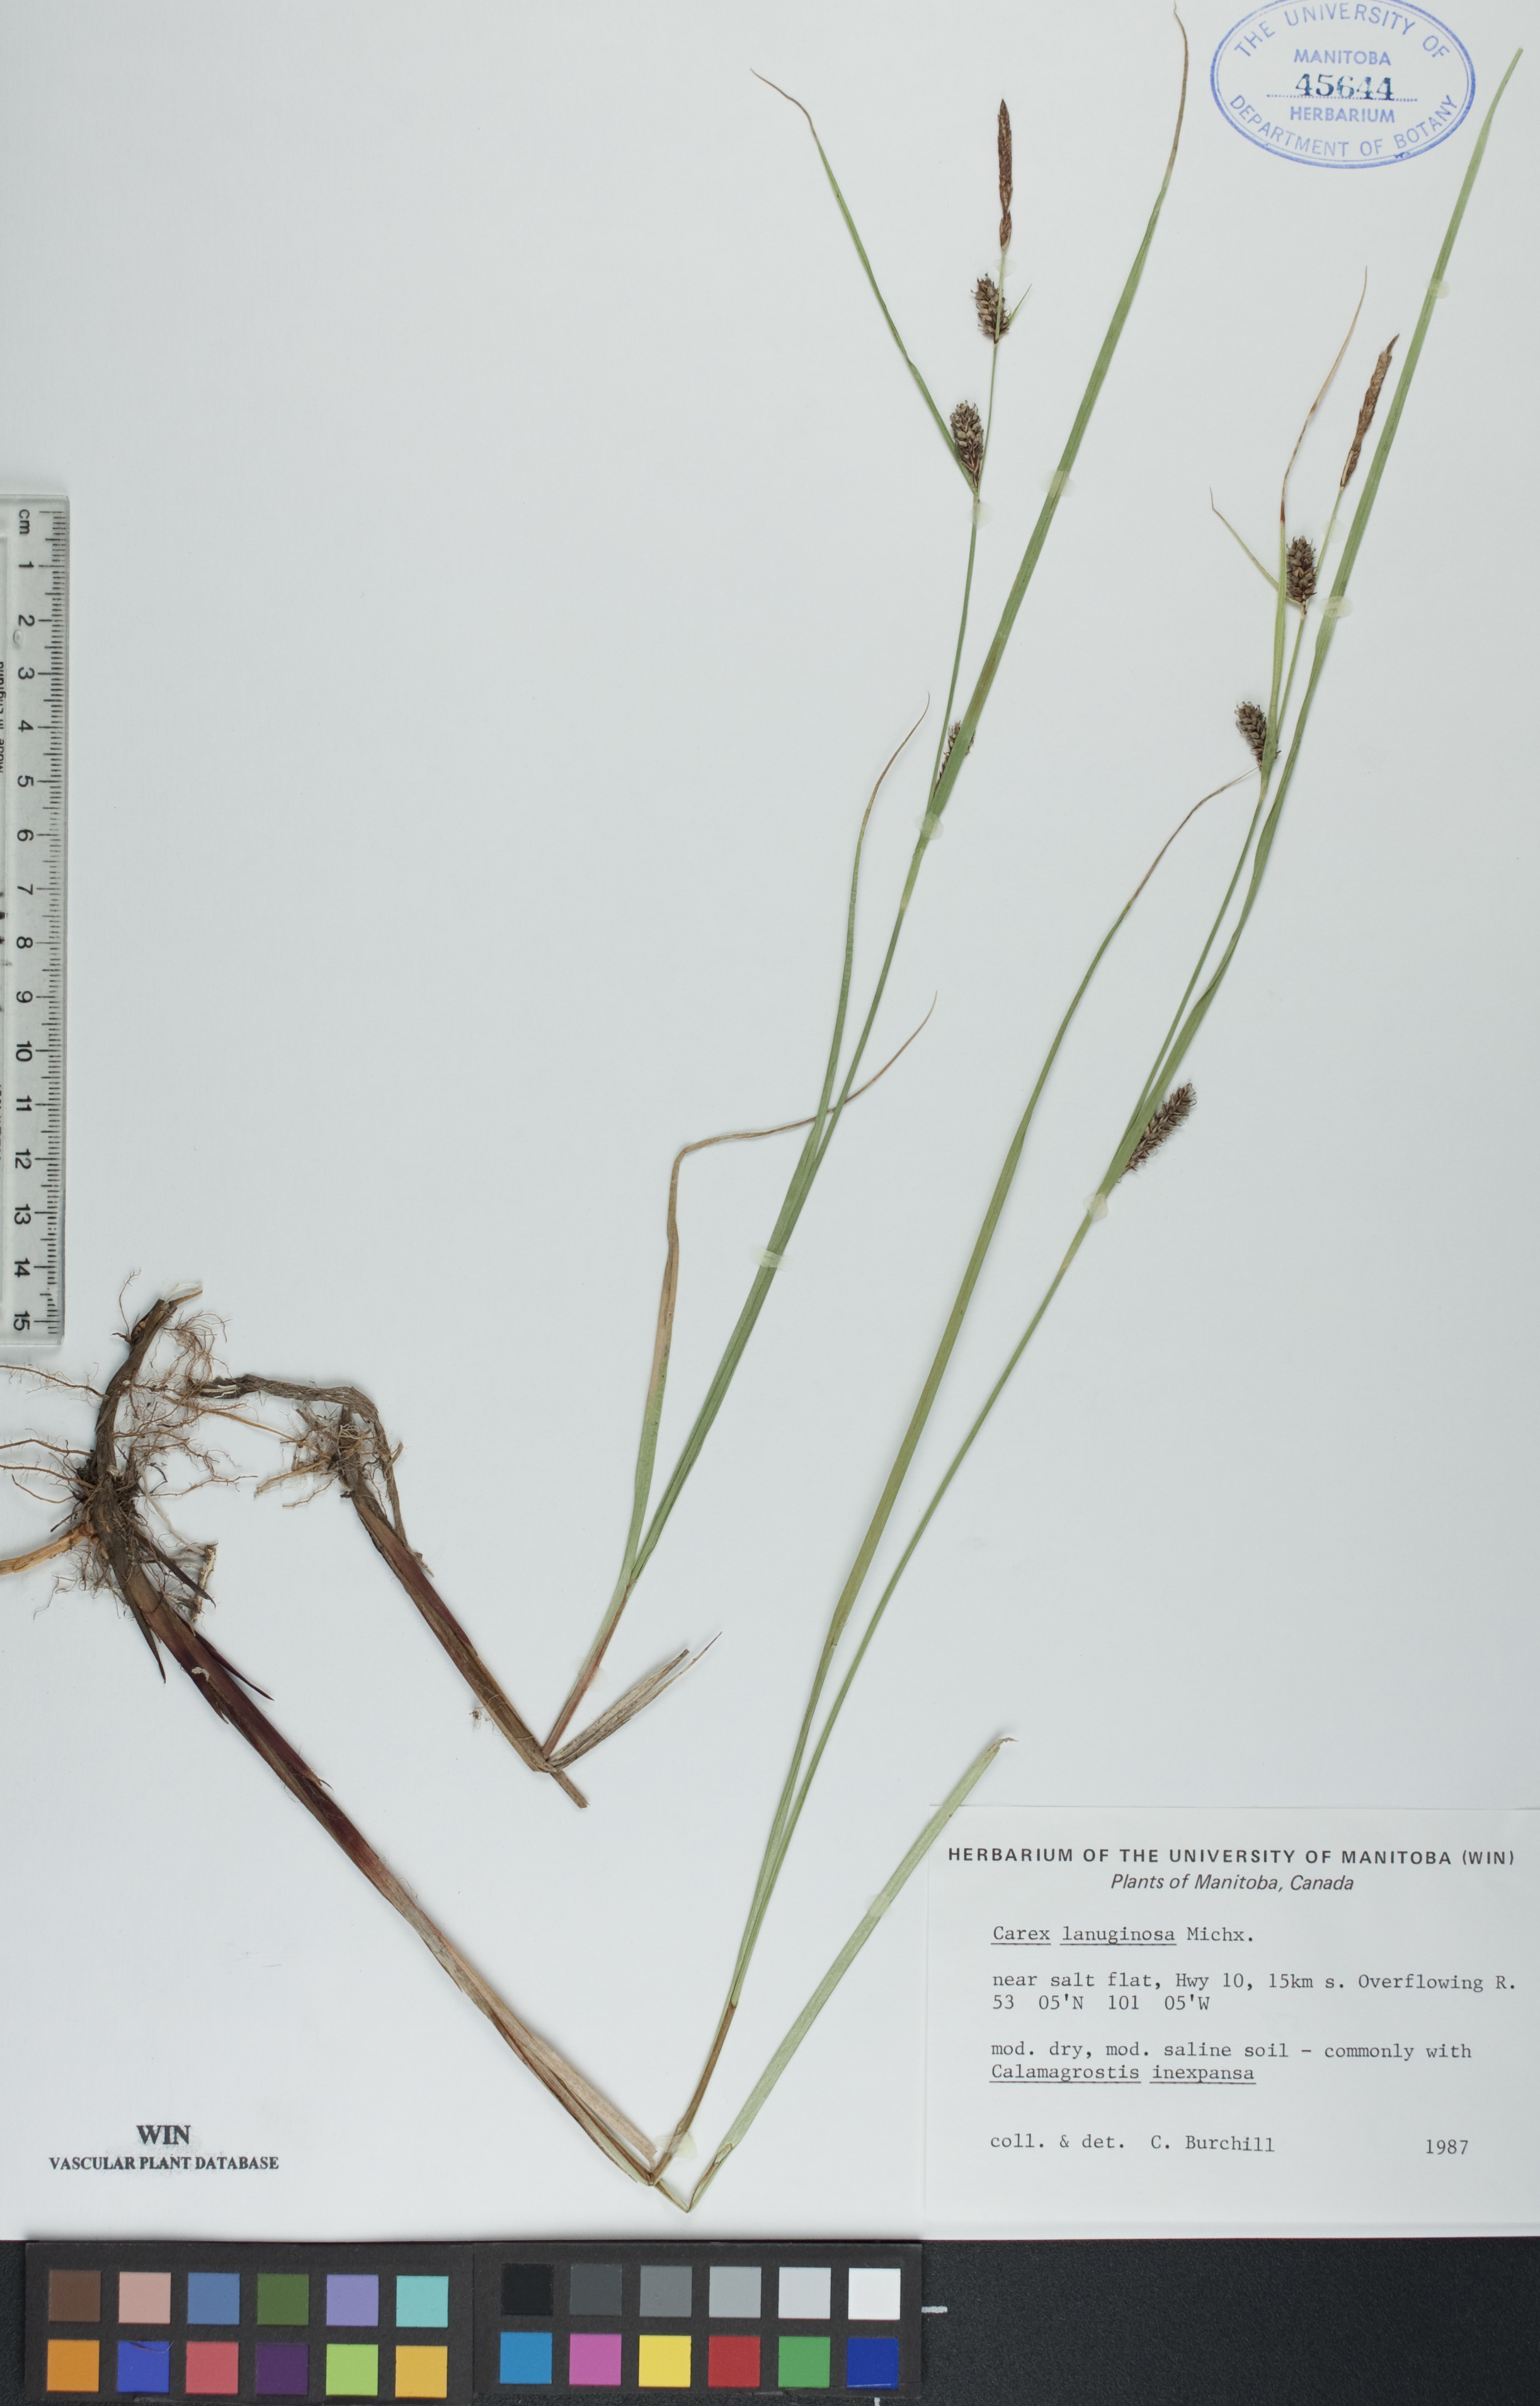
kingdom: Plantae
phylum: Tracheophyta
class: Liliopsida
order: Poales
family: Cyperaceae
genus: Carex
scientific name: Carex lasiocarpa
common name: Slender sedge
